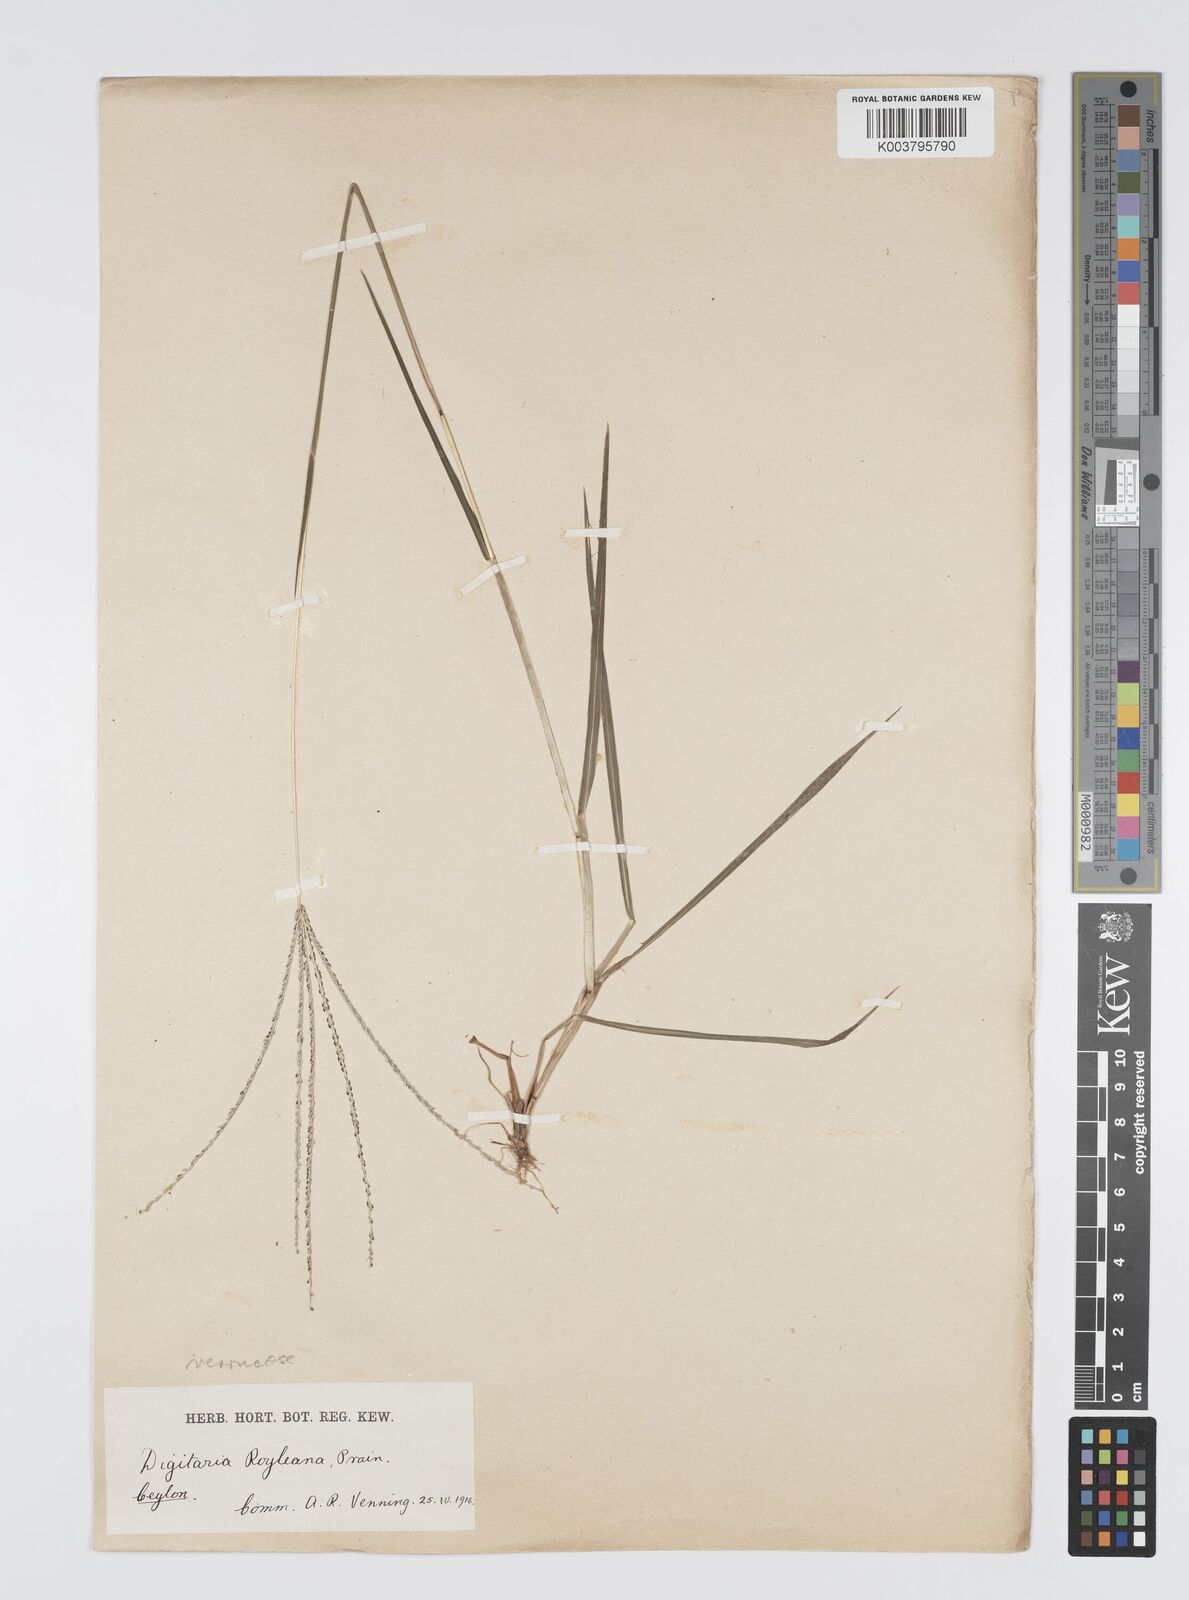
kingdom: Plantae
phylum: Tracheophyta
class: Liliopsida
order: Poales
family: Poaceae
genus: Digitaria
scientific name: Digitaria violascens
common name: Violet crabgrass
